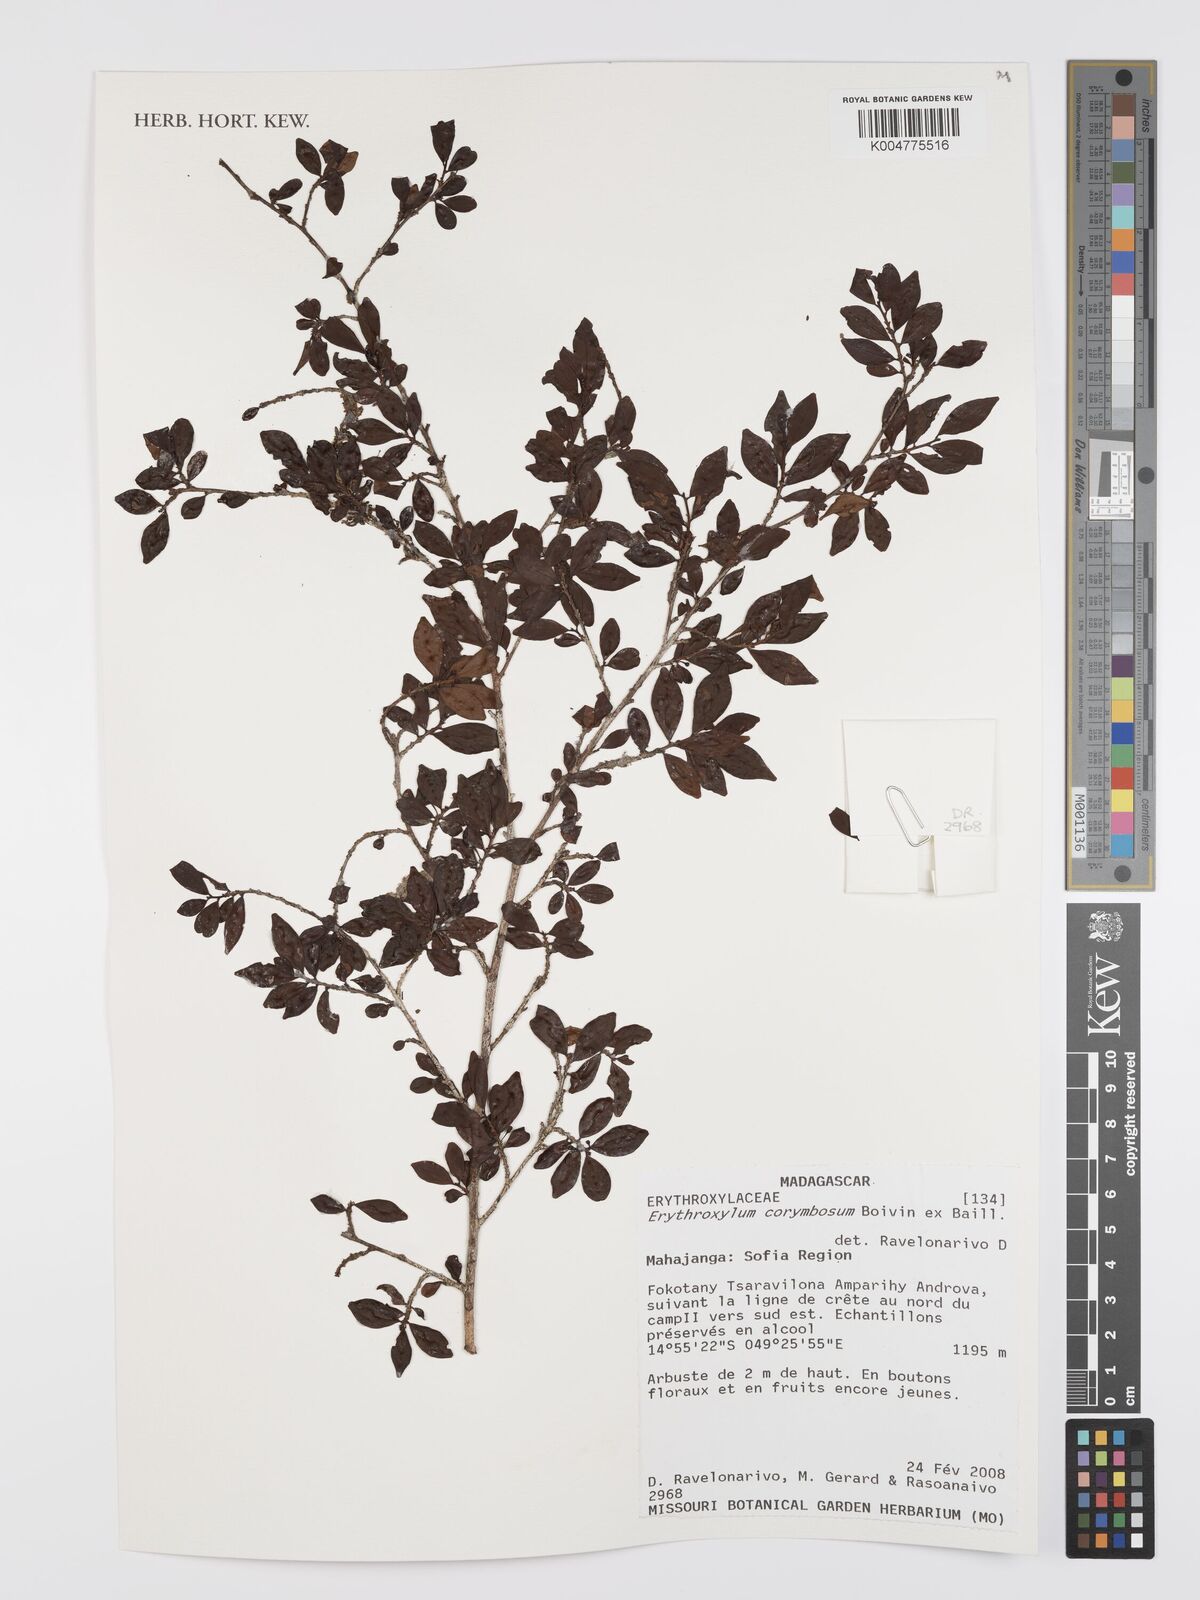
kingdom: Plantae
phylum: Tracheophyta
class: Magnoliopsida
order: Malpighiales
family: Erythroxylaceae
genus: Erythroxylum
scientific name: Erythroxylum corymbosum
